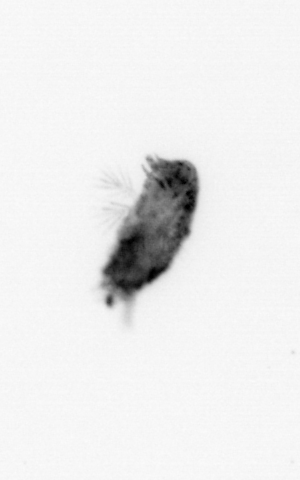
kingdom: Animalia
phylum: Arthropoda
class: Maxillopoda
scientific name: Maxillopoda
